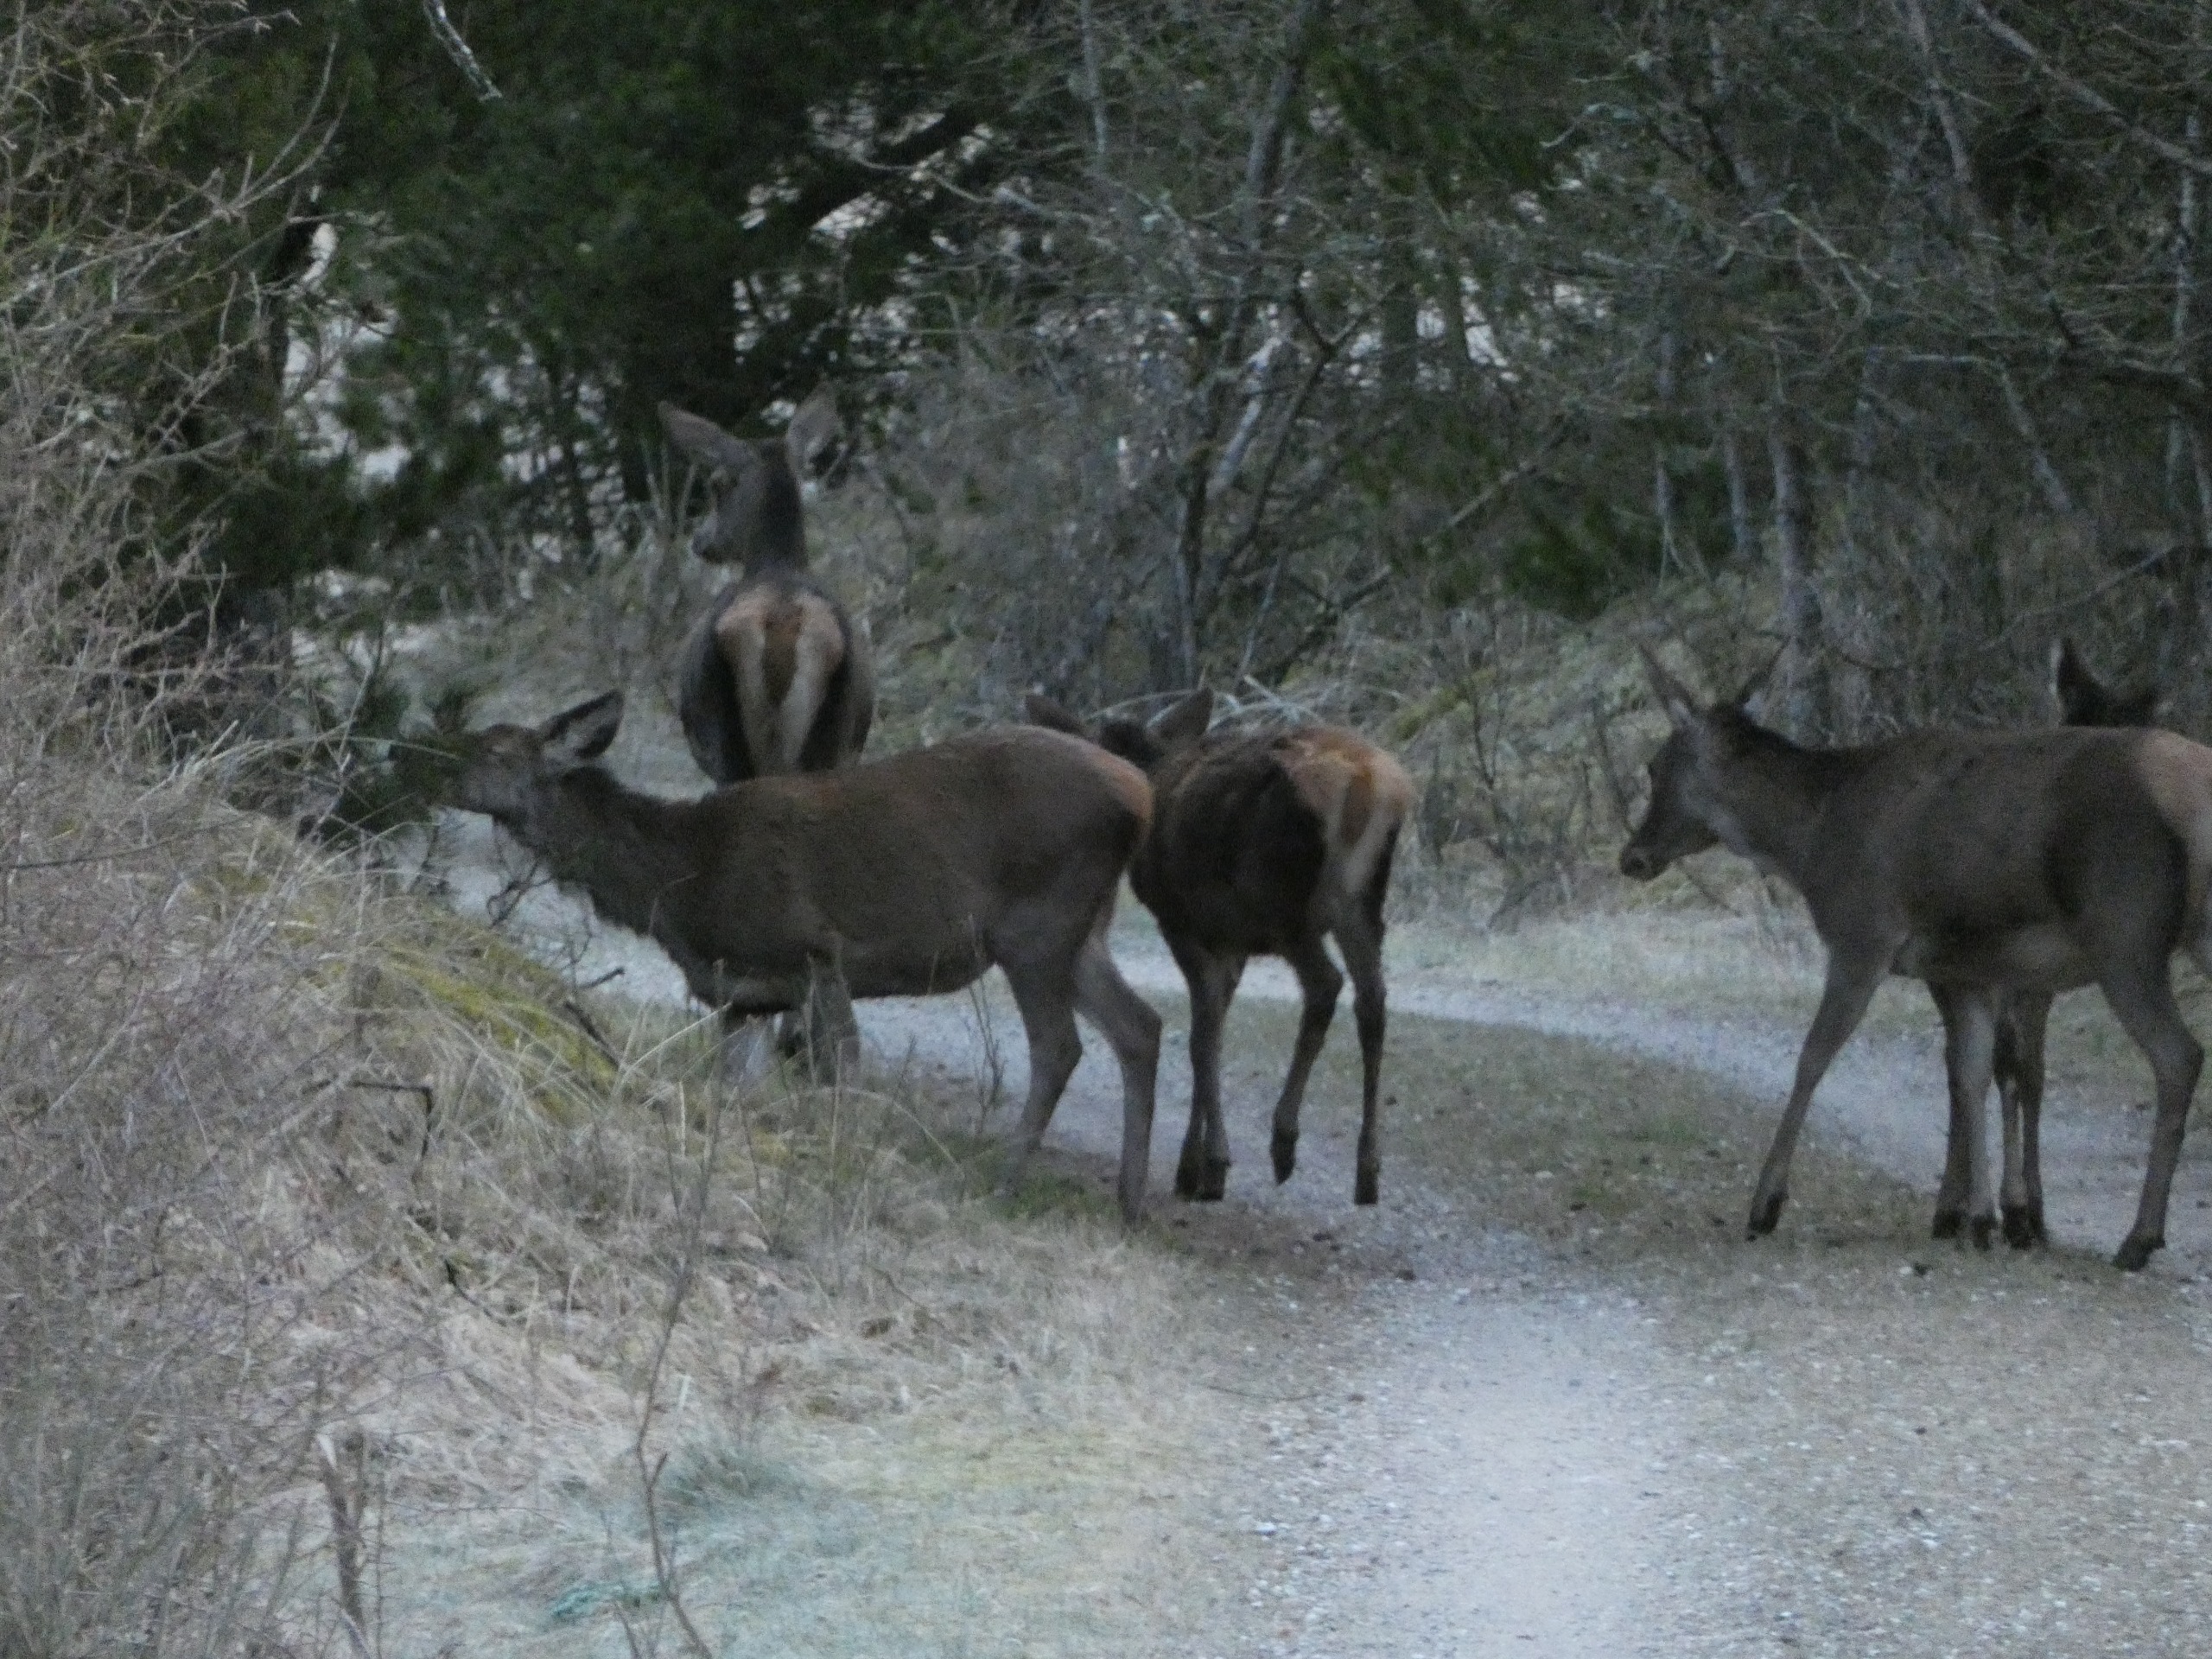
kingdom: Animalia
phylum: Chordata
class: Mammalia
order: Artiodactyla
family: Cervidae
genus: Cervus
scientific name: Cervus elaphus
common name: Krondyr
